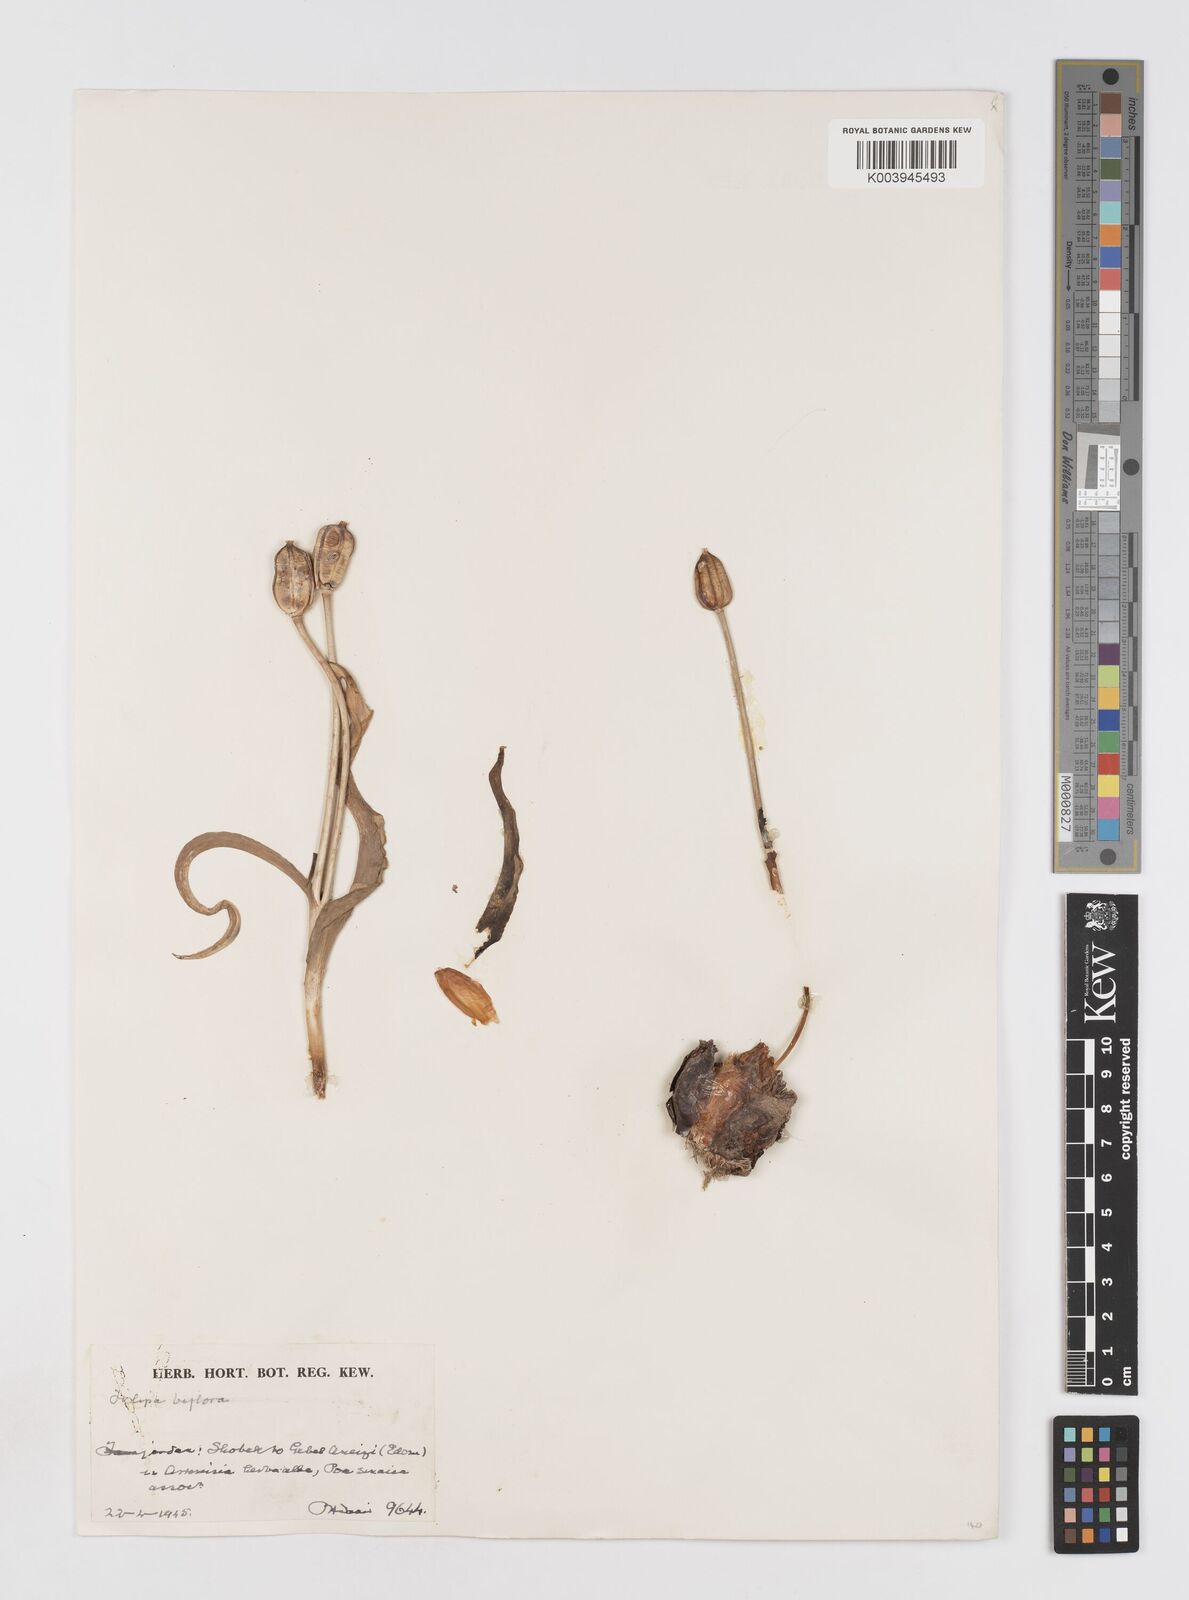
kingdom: Plantae
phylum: Tracheophyta
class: Liliopsida
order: Liliales
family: Liliaceae
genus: Tulipa
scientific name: Tulipa biflora
